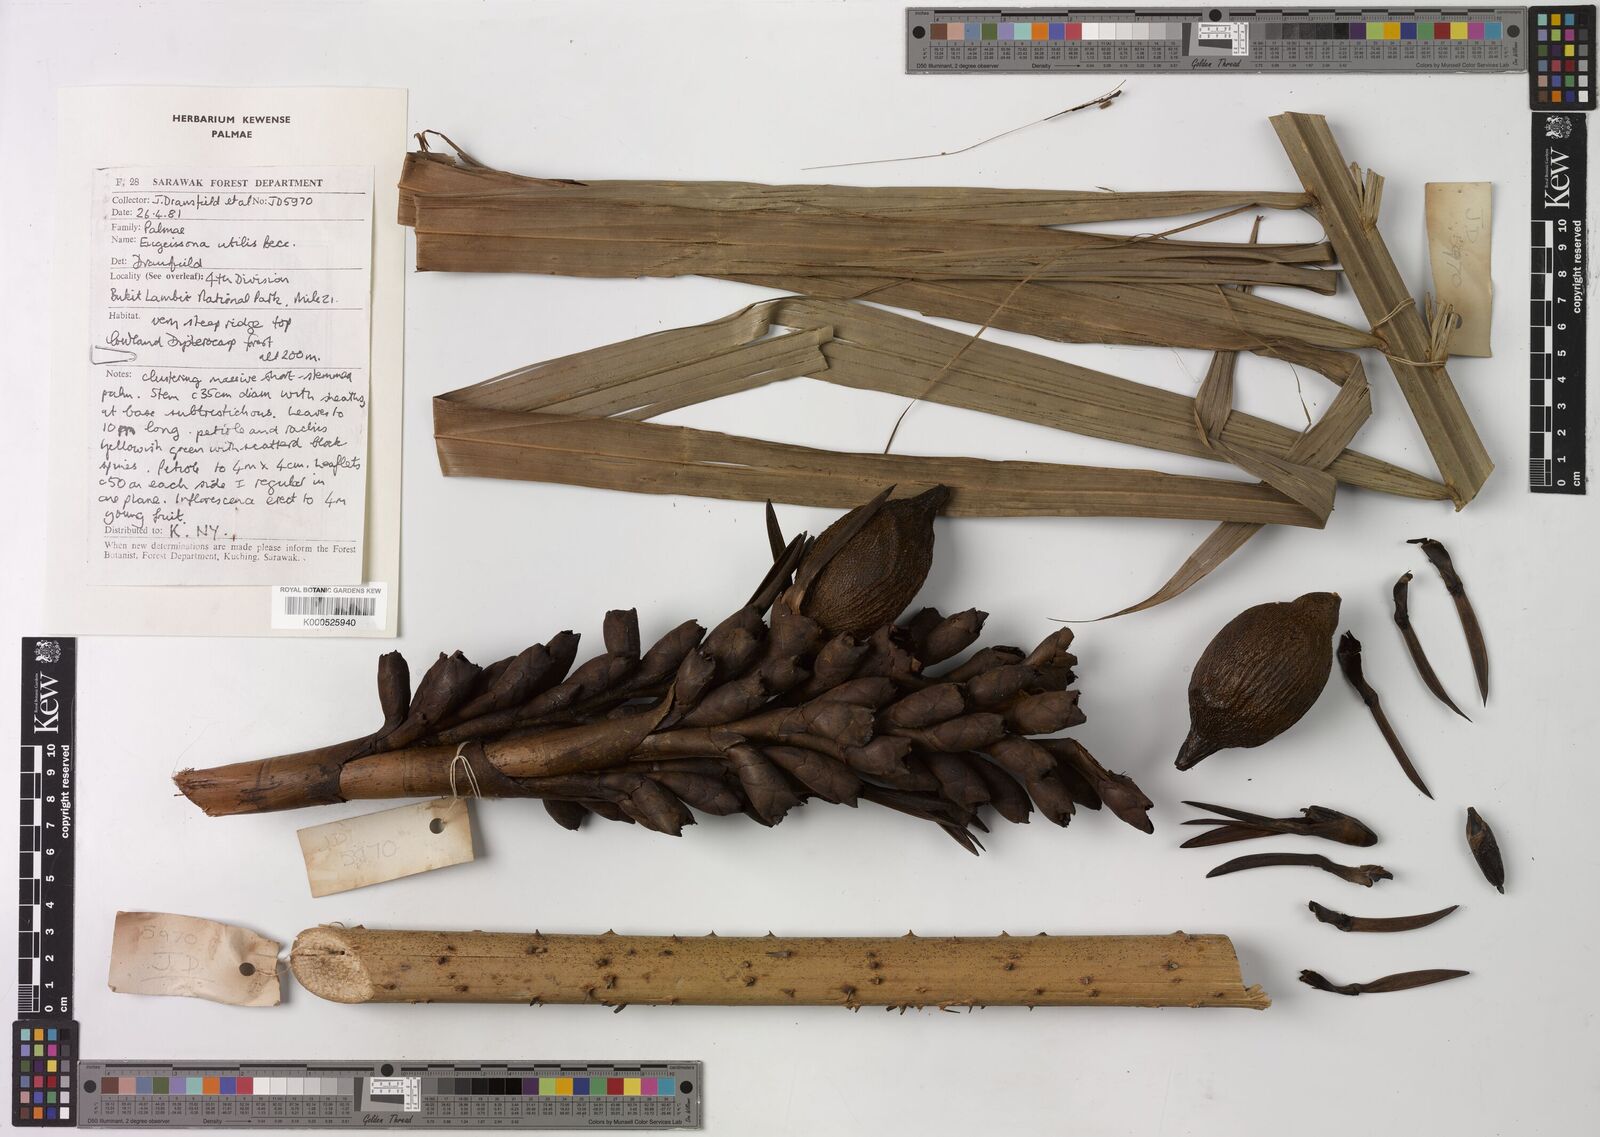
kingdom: Plantae
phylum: Tracheophyta
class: Liliopsida
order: Arecales
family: Arecaceae
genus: Eugeissona
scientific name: Eugeissona utilis
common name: Wild bornean sago palm
